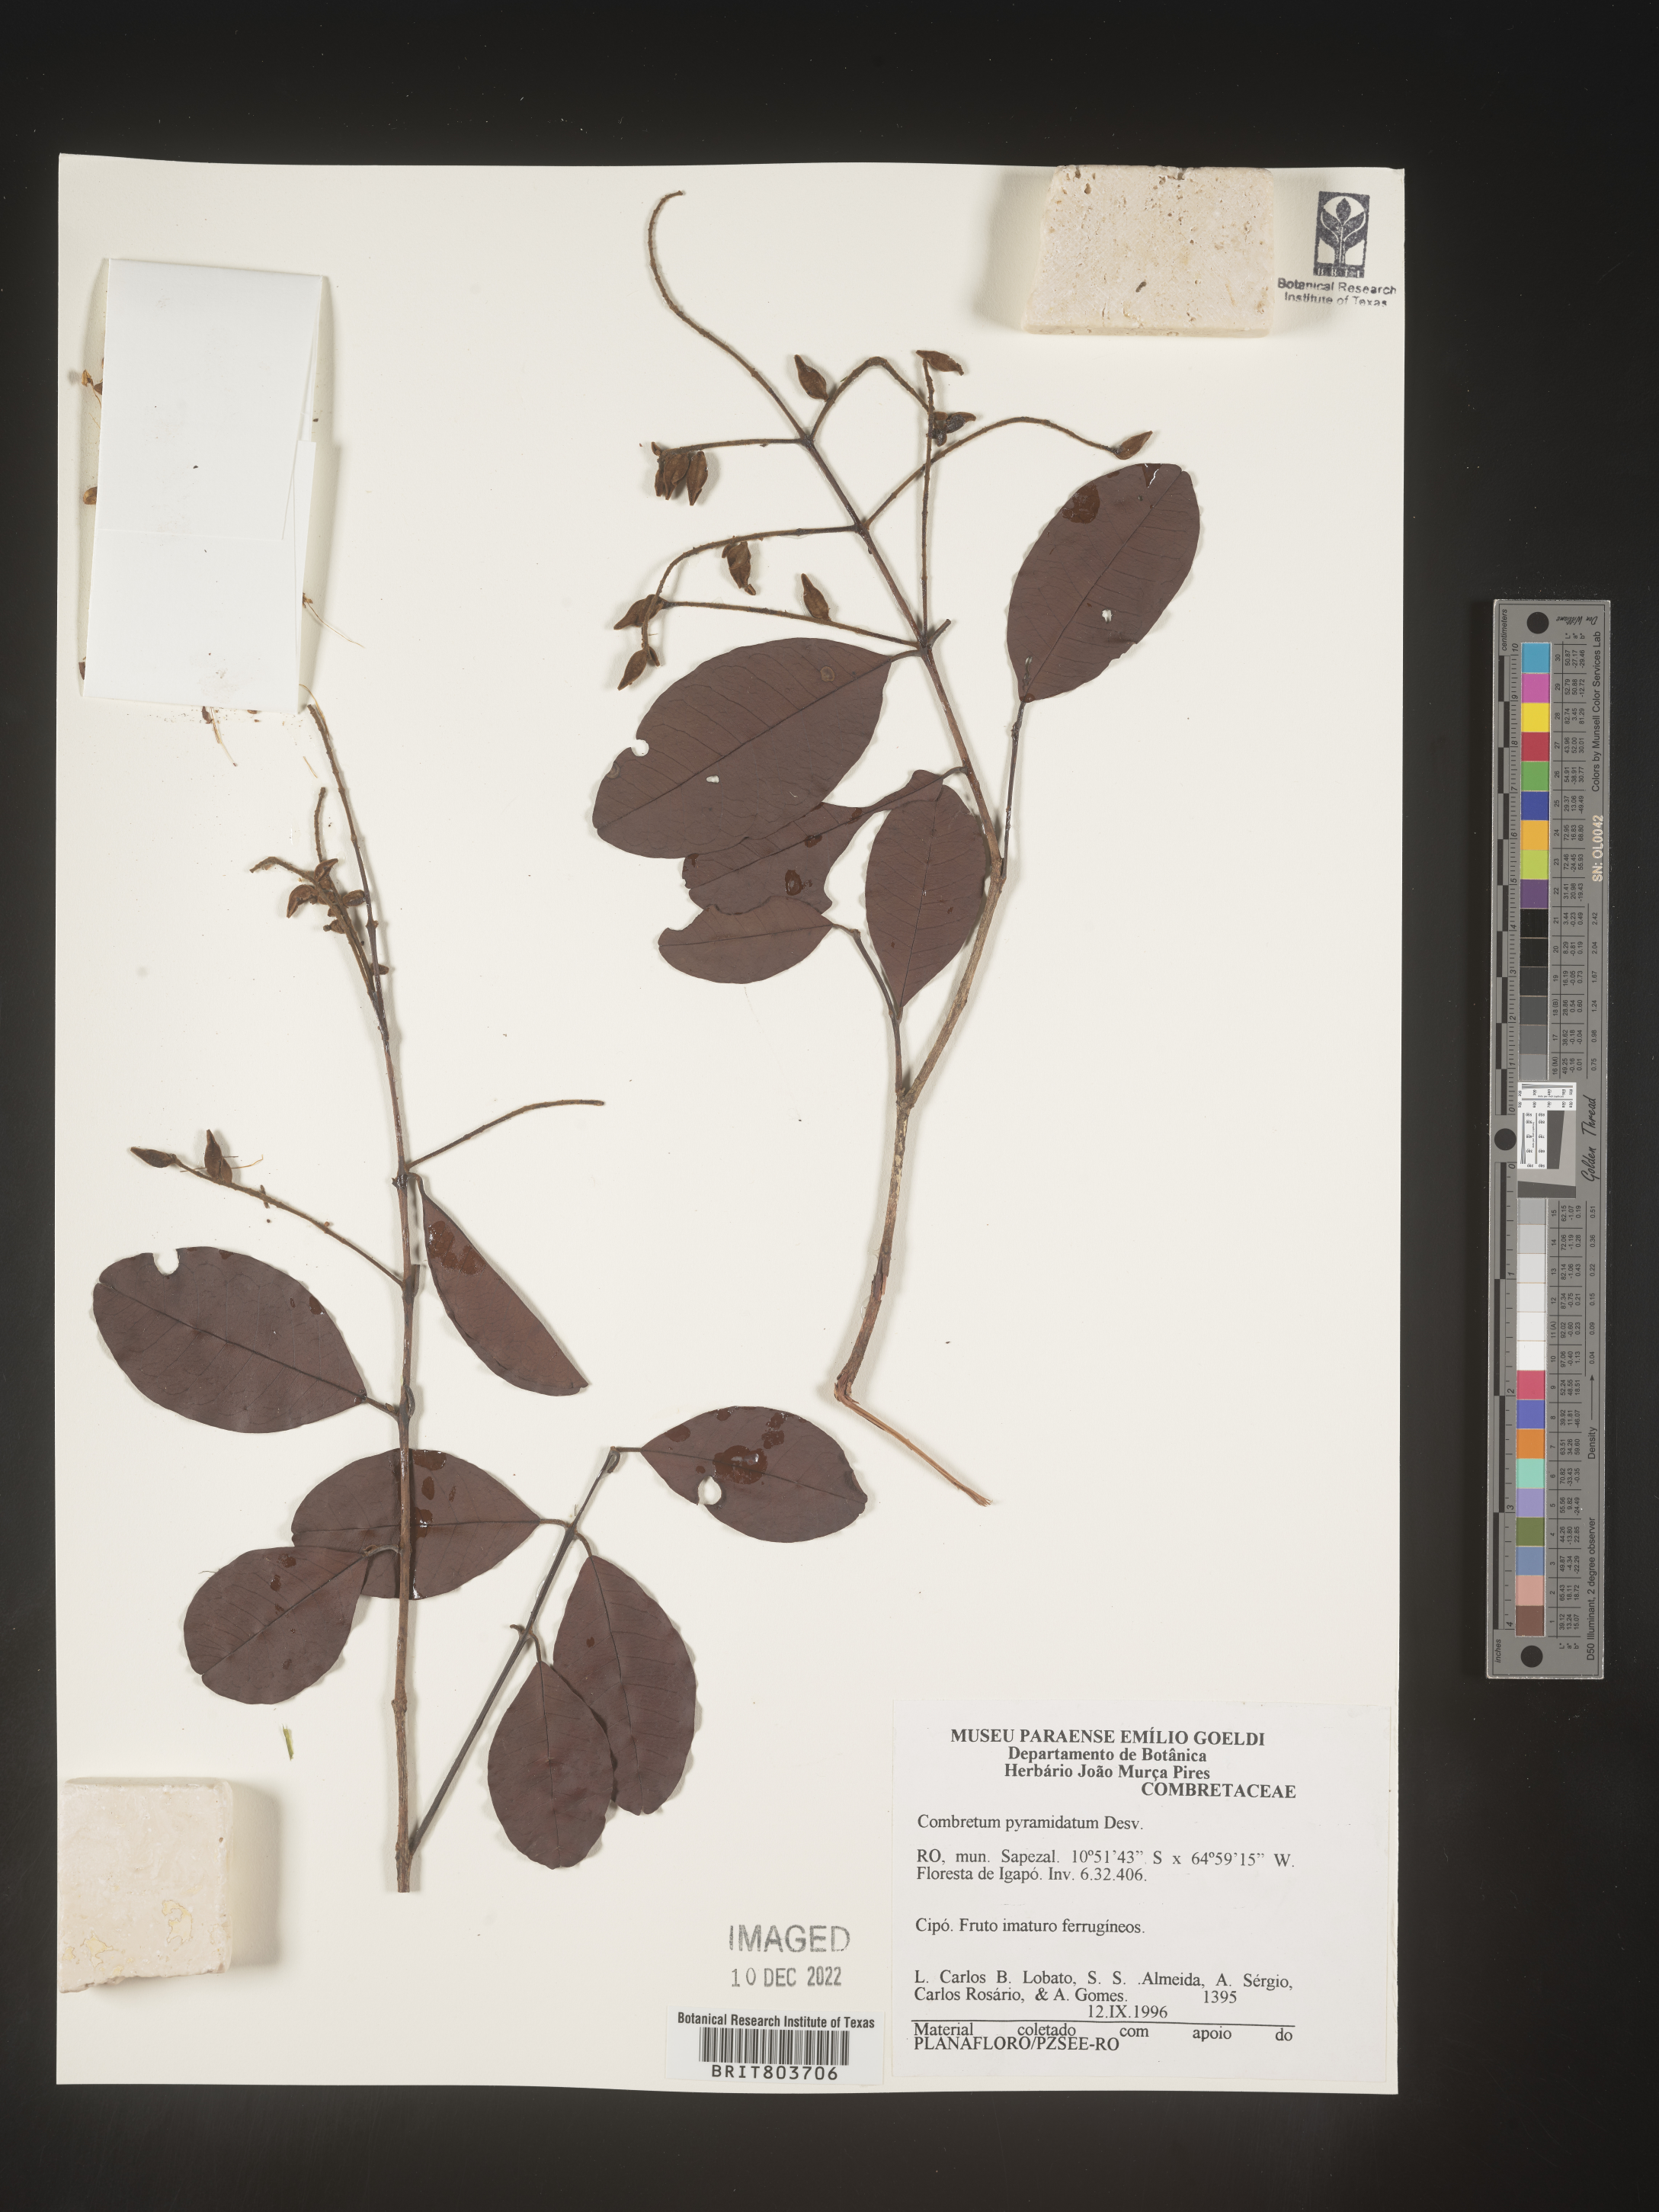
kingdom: Plantae
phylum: Tracheophyta
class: Magnoliopsida
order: Myrtales
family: Combretaceae
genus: Combretum
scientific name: Combretum
